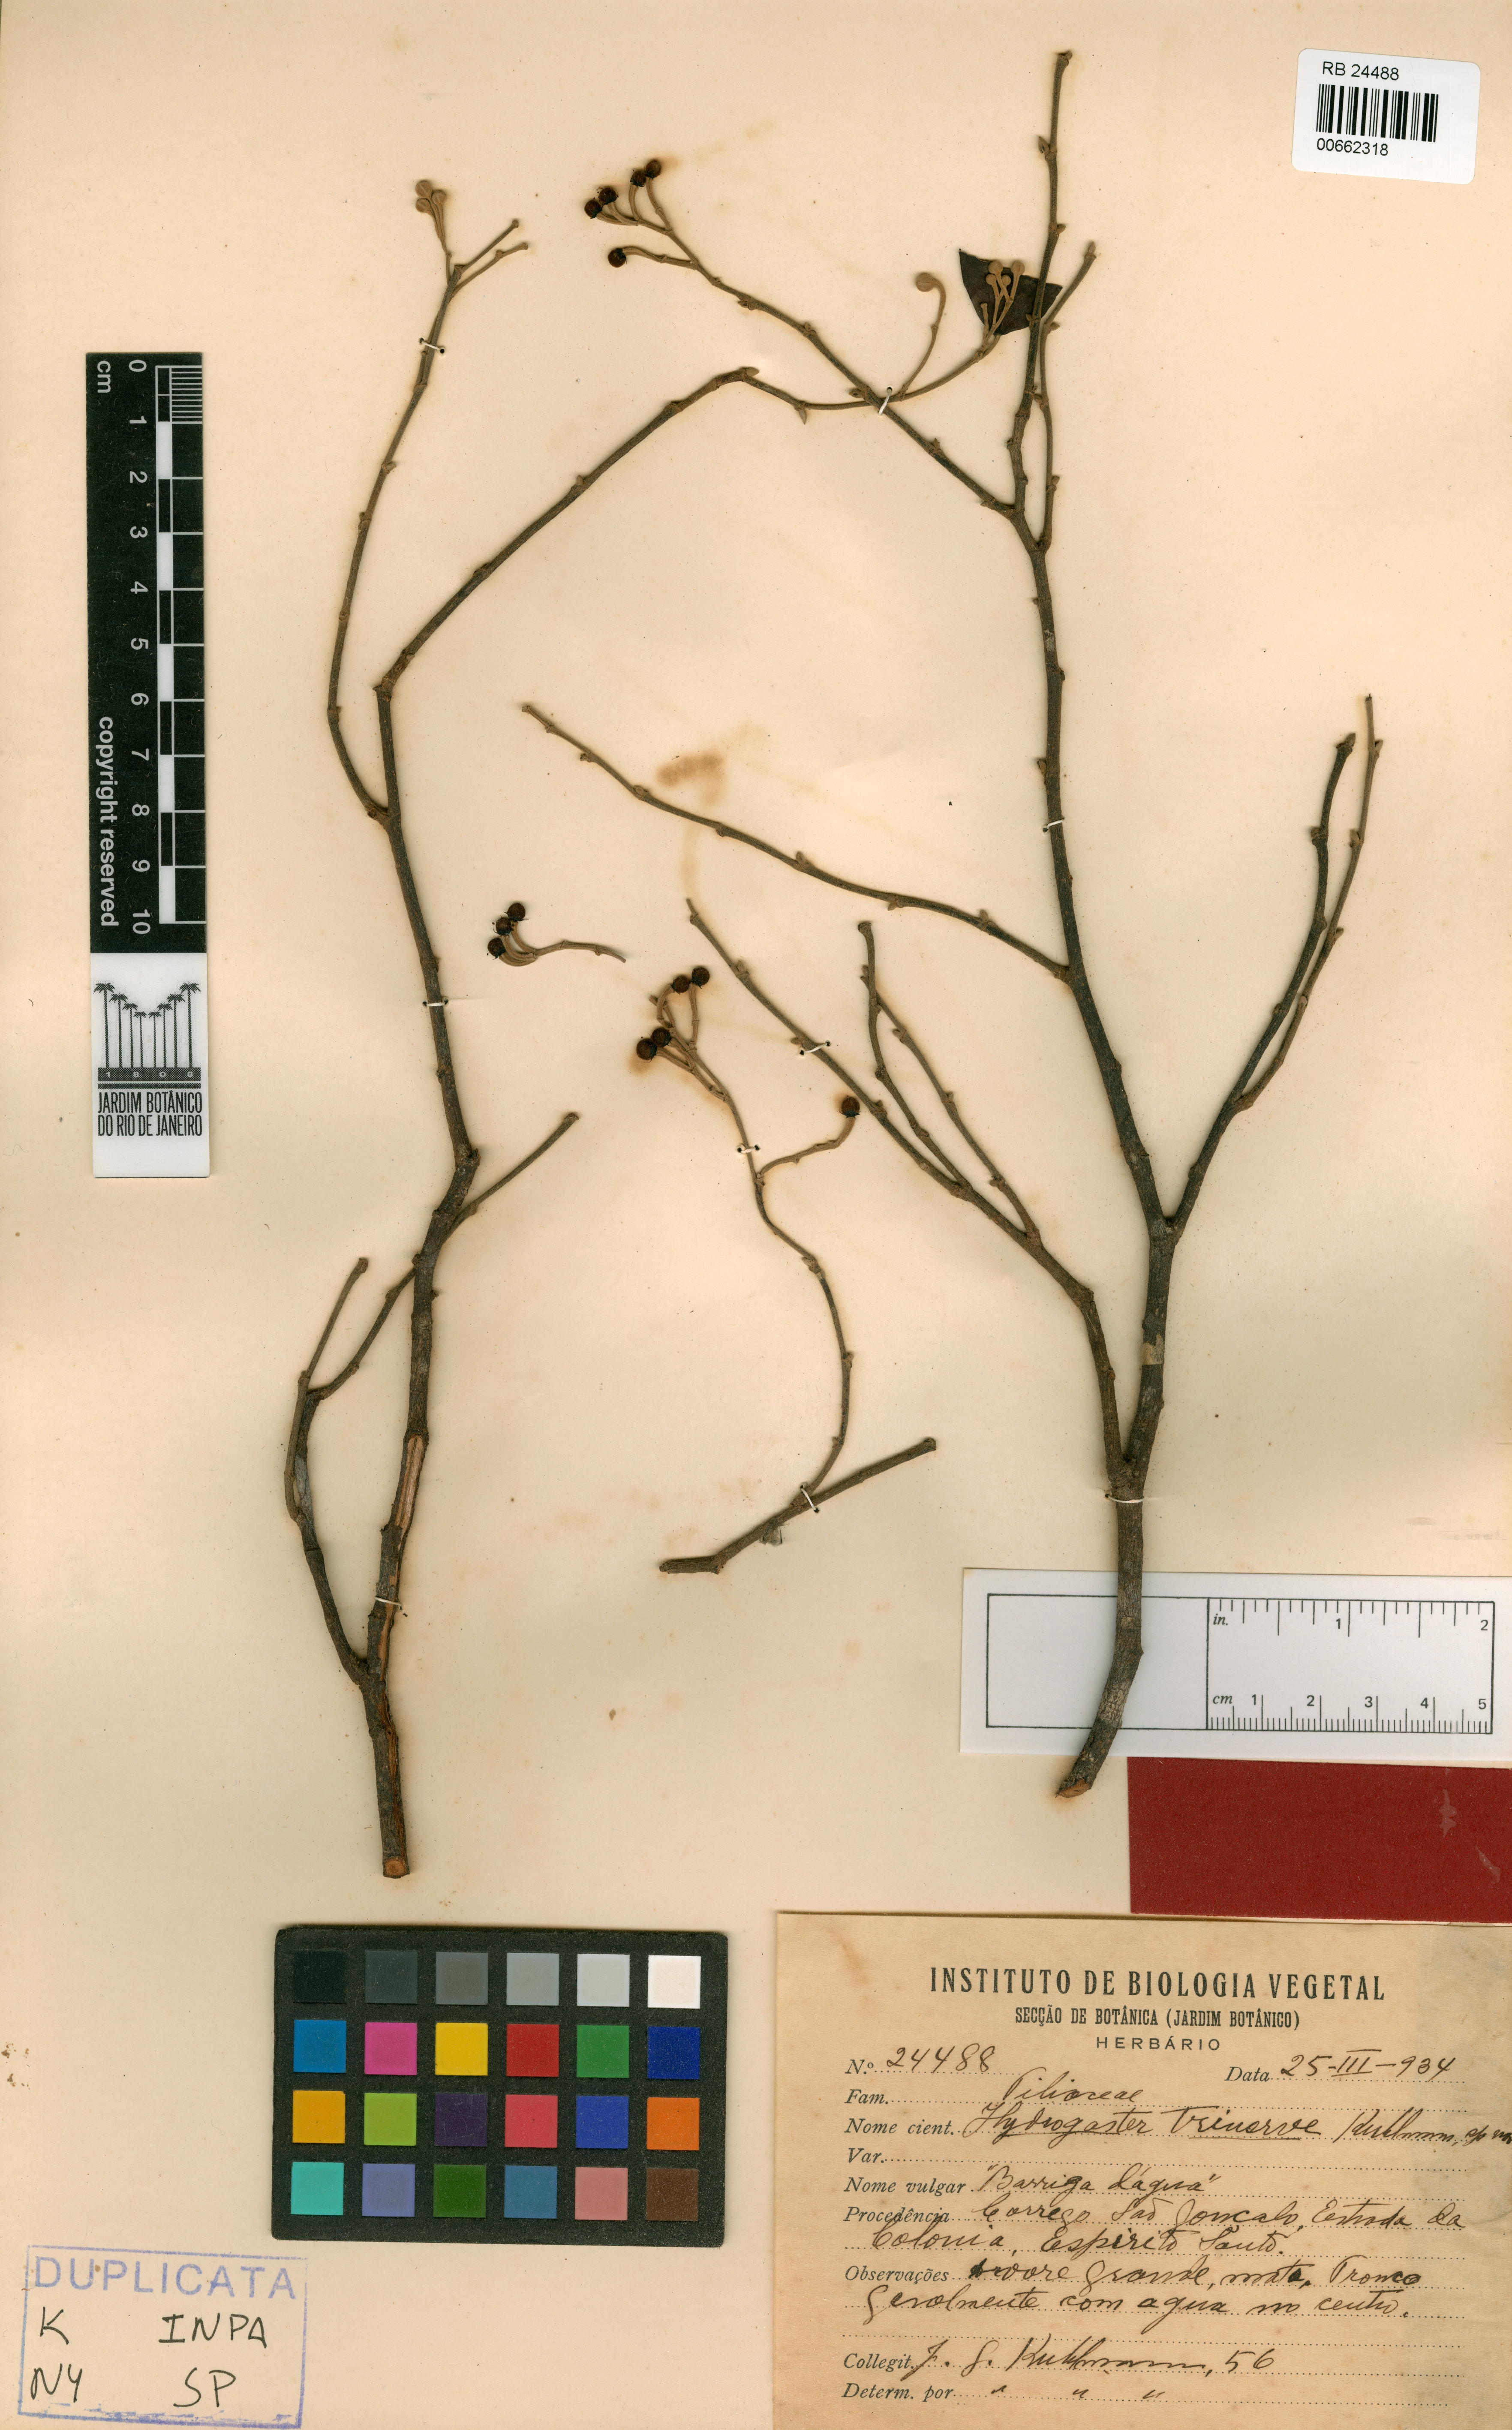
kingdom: Plantae
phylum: Tracheophyta
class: Magnoliopsida
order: Malvales
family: Malvaceae
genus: Hydrogaster
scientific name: Hydrogaster trinervis
